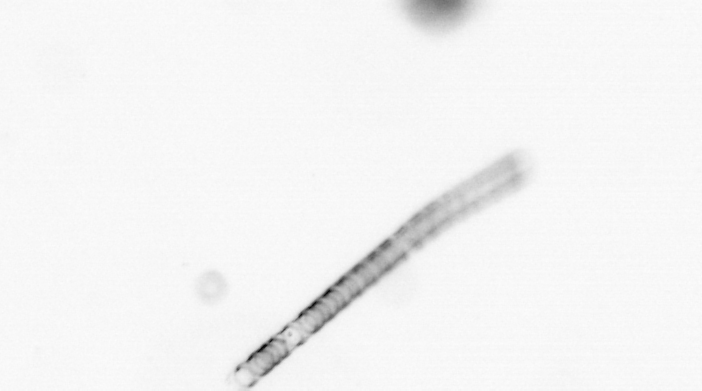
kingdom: Chromista
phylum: Ochrophyta
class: Bacillariophyceae
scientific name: Bacillariophyceae
